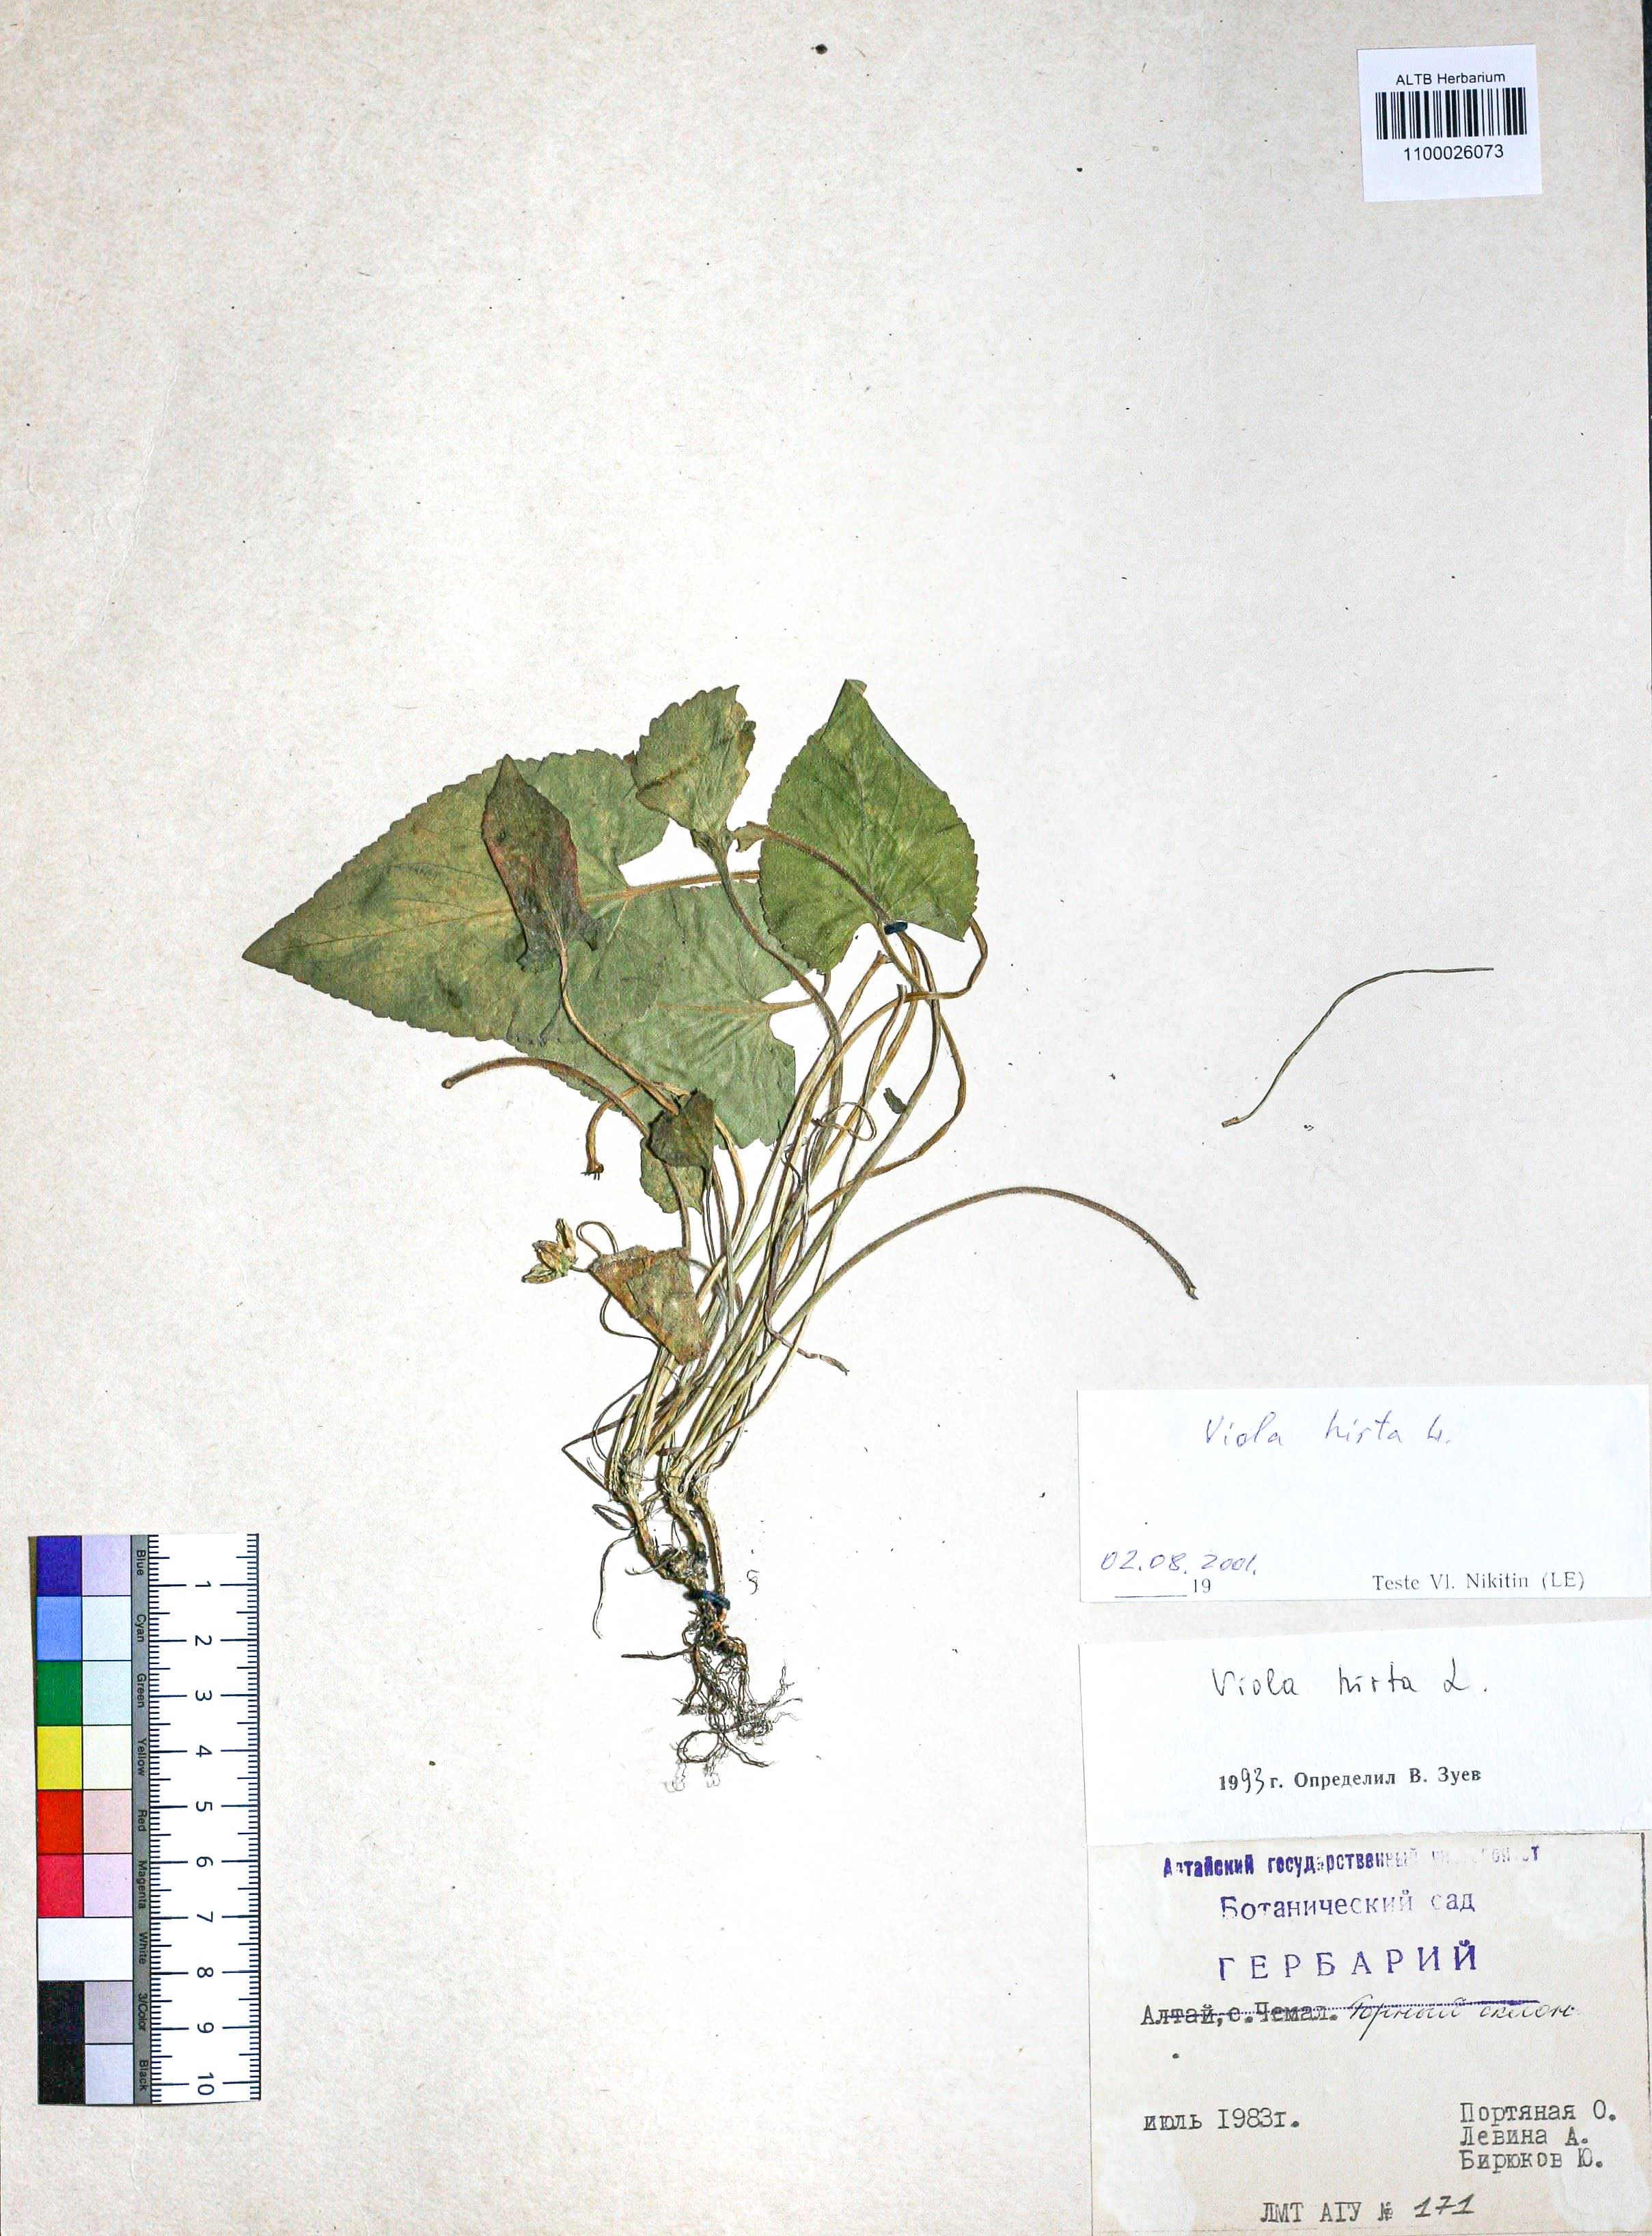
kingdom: Plantae
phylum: Tracheophyta
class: Magnoliopsida
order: Malpighiales
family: Violaceae
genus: Viola
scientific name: Viola hirta
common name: Hairy violet
